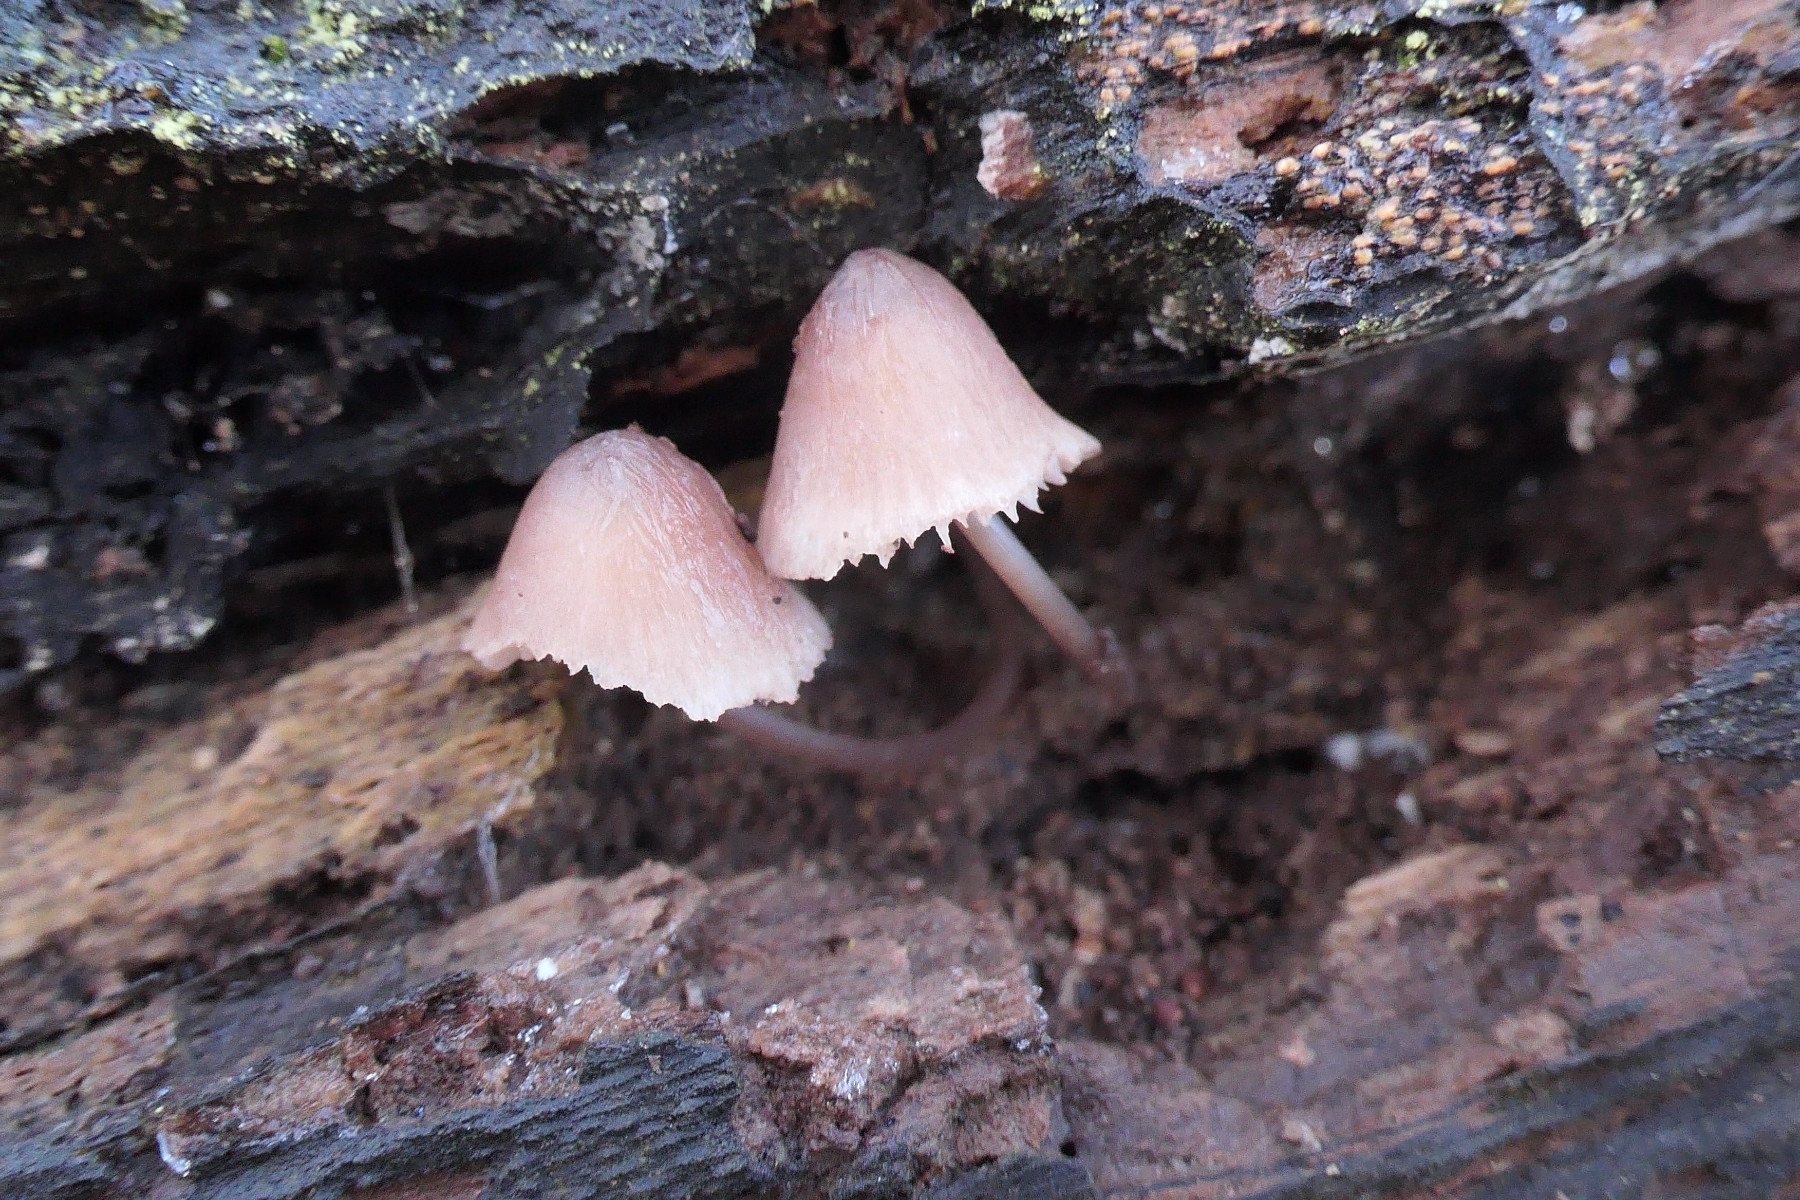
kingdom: Fungi
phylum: Basidiomycota
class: Agaricomycetes
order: Agaricales
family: Mycenaceae
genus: Mycena
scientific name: Mycena haematopus
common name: blødende huesvamp
